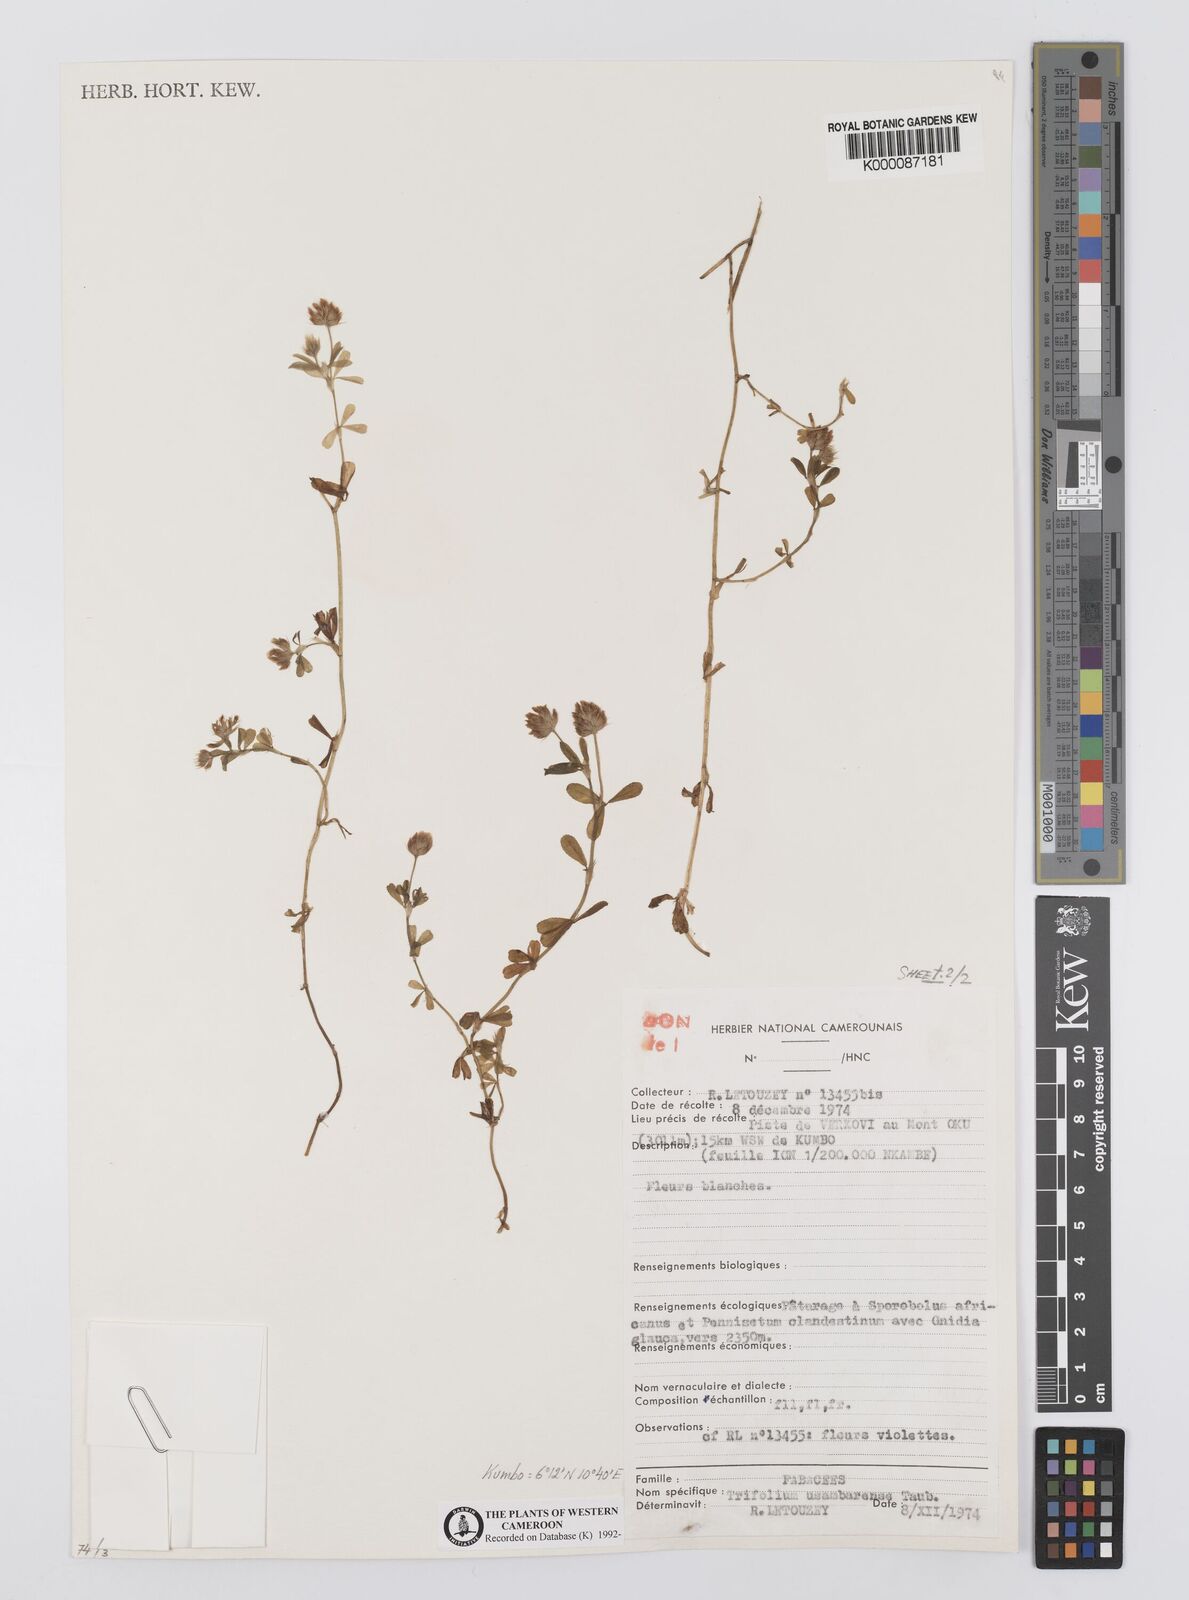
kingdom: Plantae
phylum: Tracheophyta
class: Magnoliopsida
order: Fabales
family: Fabaceae
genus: Trifolium
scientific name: Trifolium usambarense
